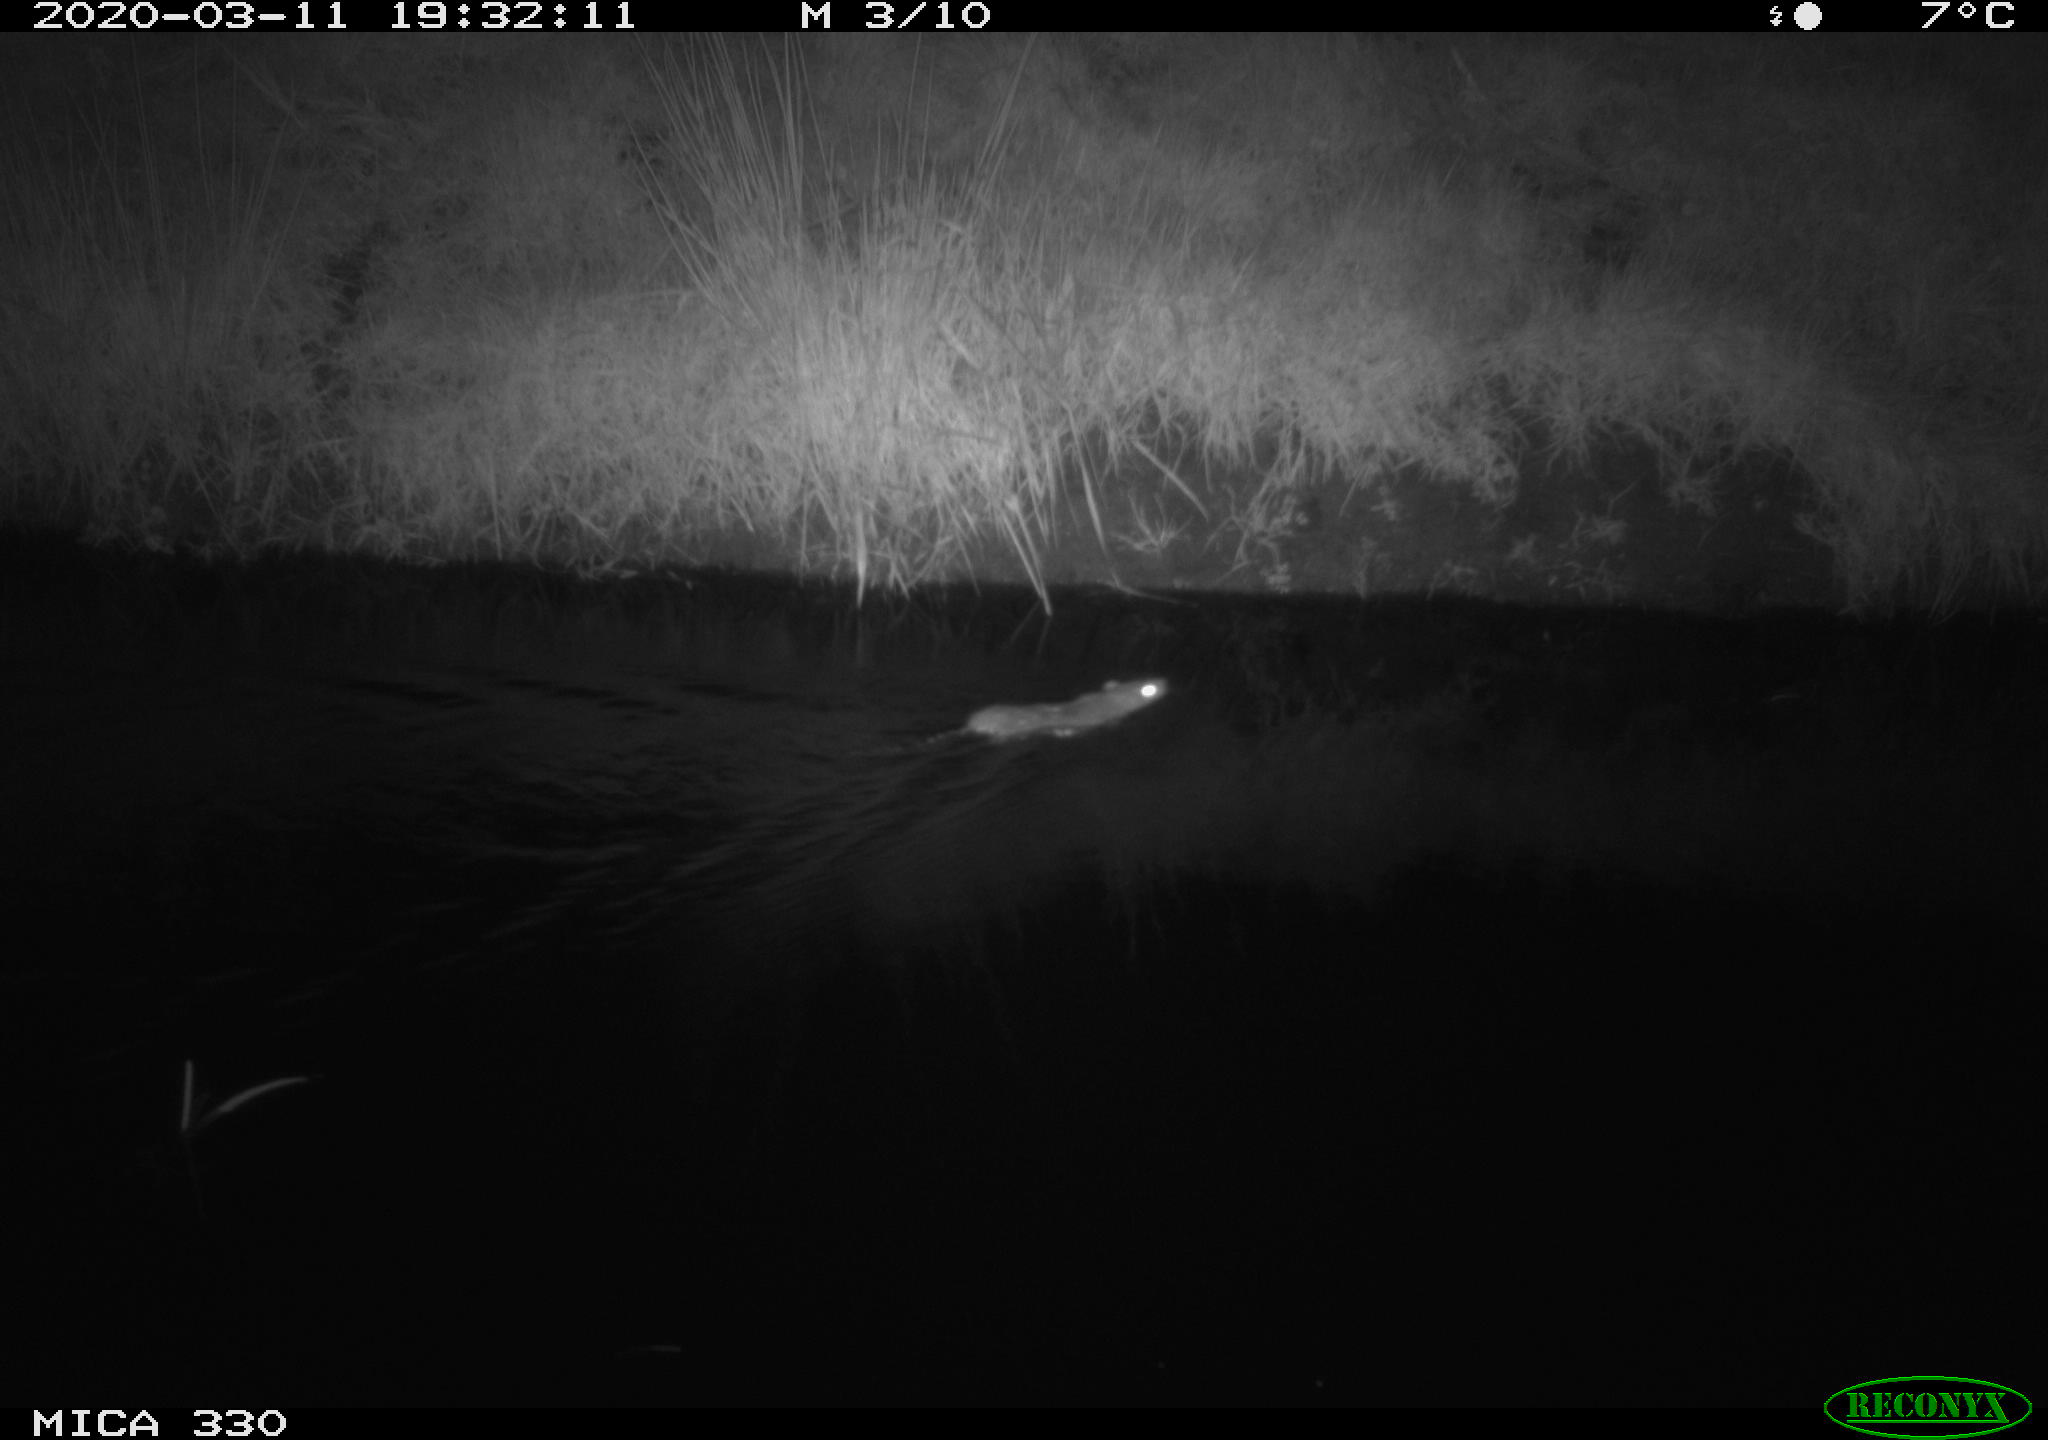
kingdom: Animalia
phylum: Chordata
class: Mammalia
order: Rodentia
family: Muridae
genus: Rattus
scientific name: Rattus norvegicus
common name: Brown rat
